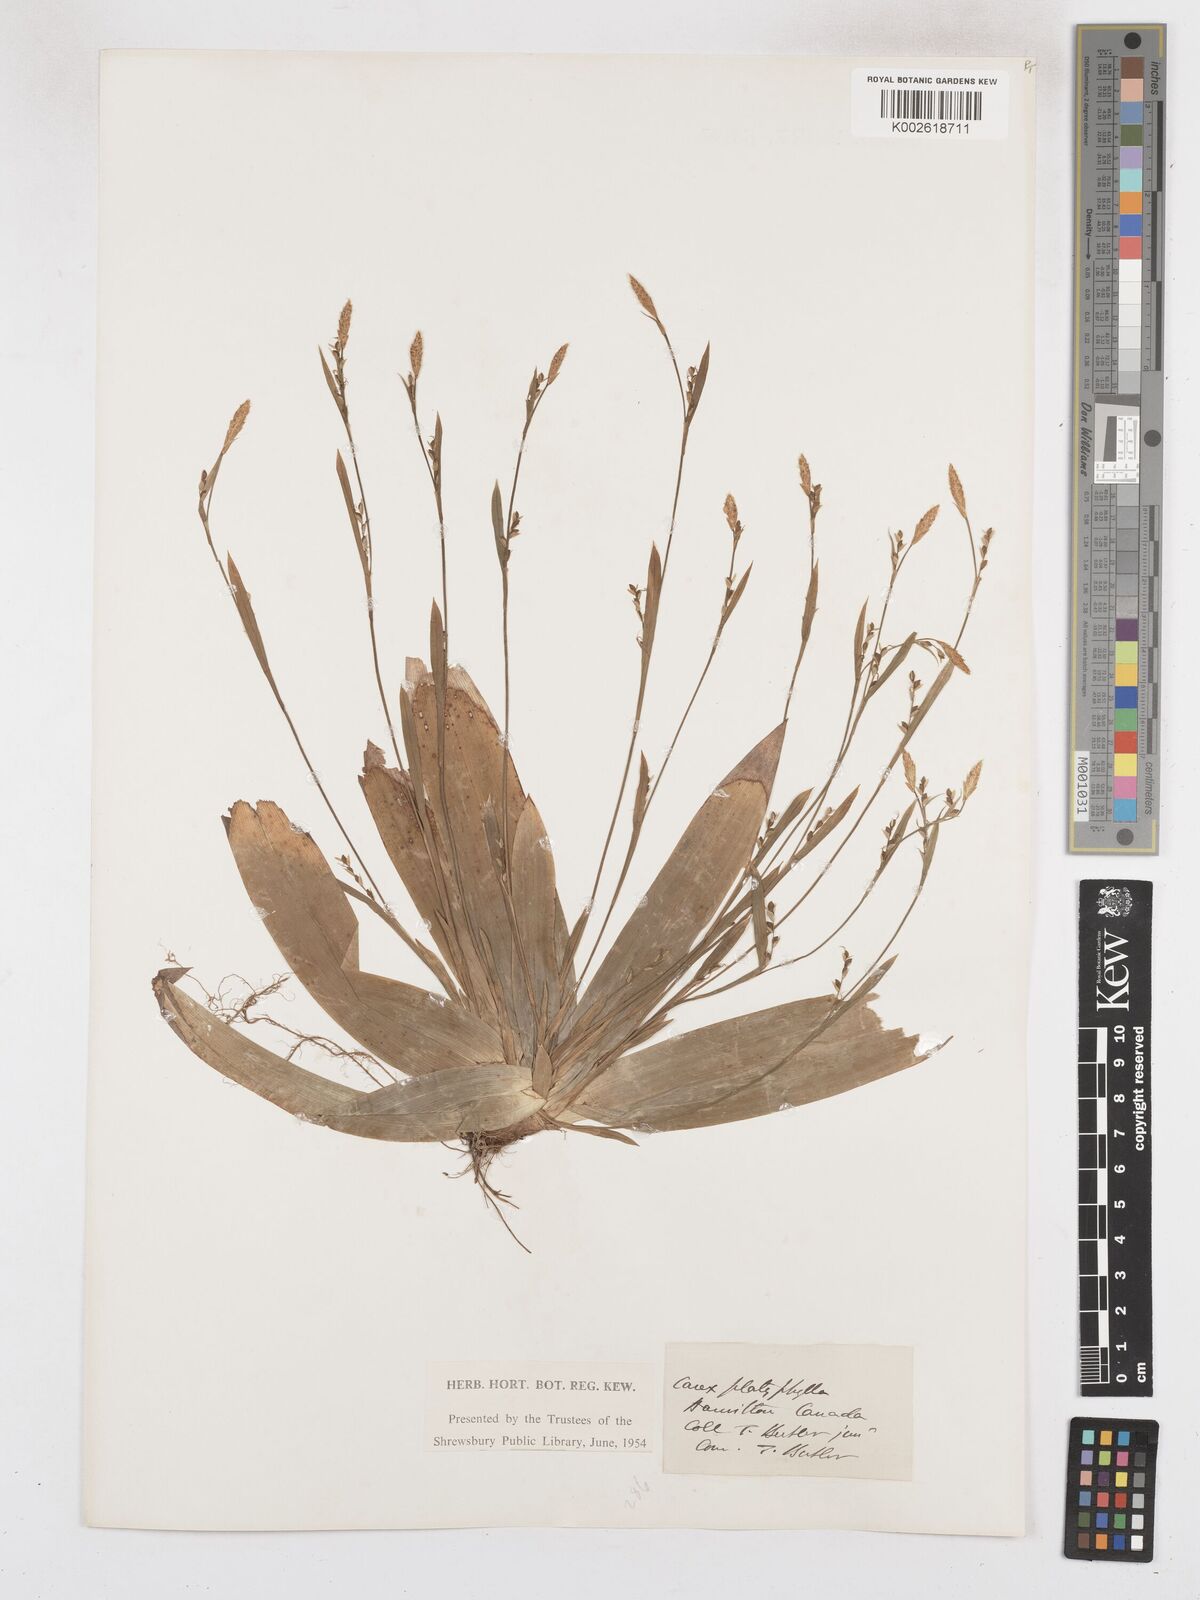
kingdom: Plantae
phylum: Tracheophyta
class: Liliopsida
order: Poales
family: Cyperaceae
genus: Carex
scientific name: Carex platyphylla
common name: Broad-leaved sedge
